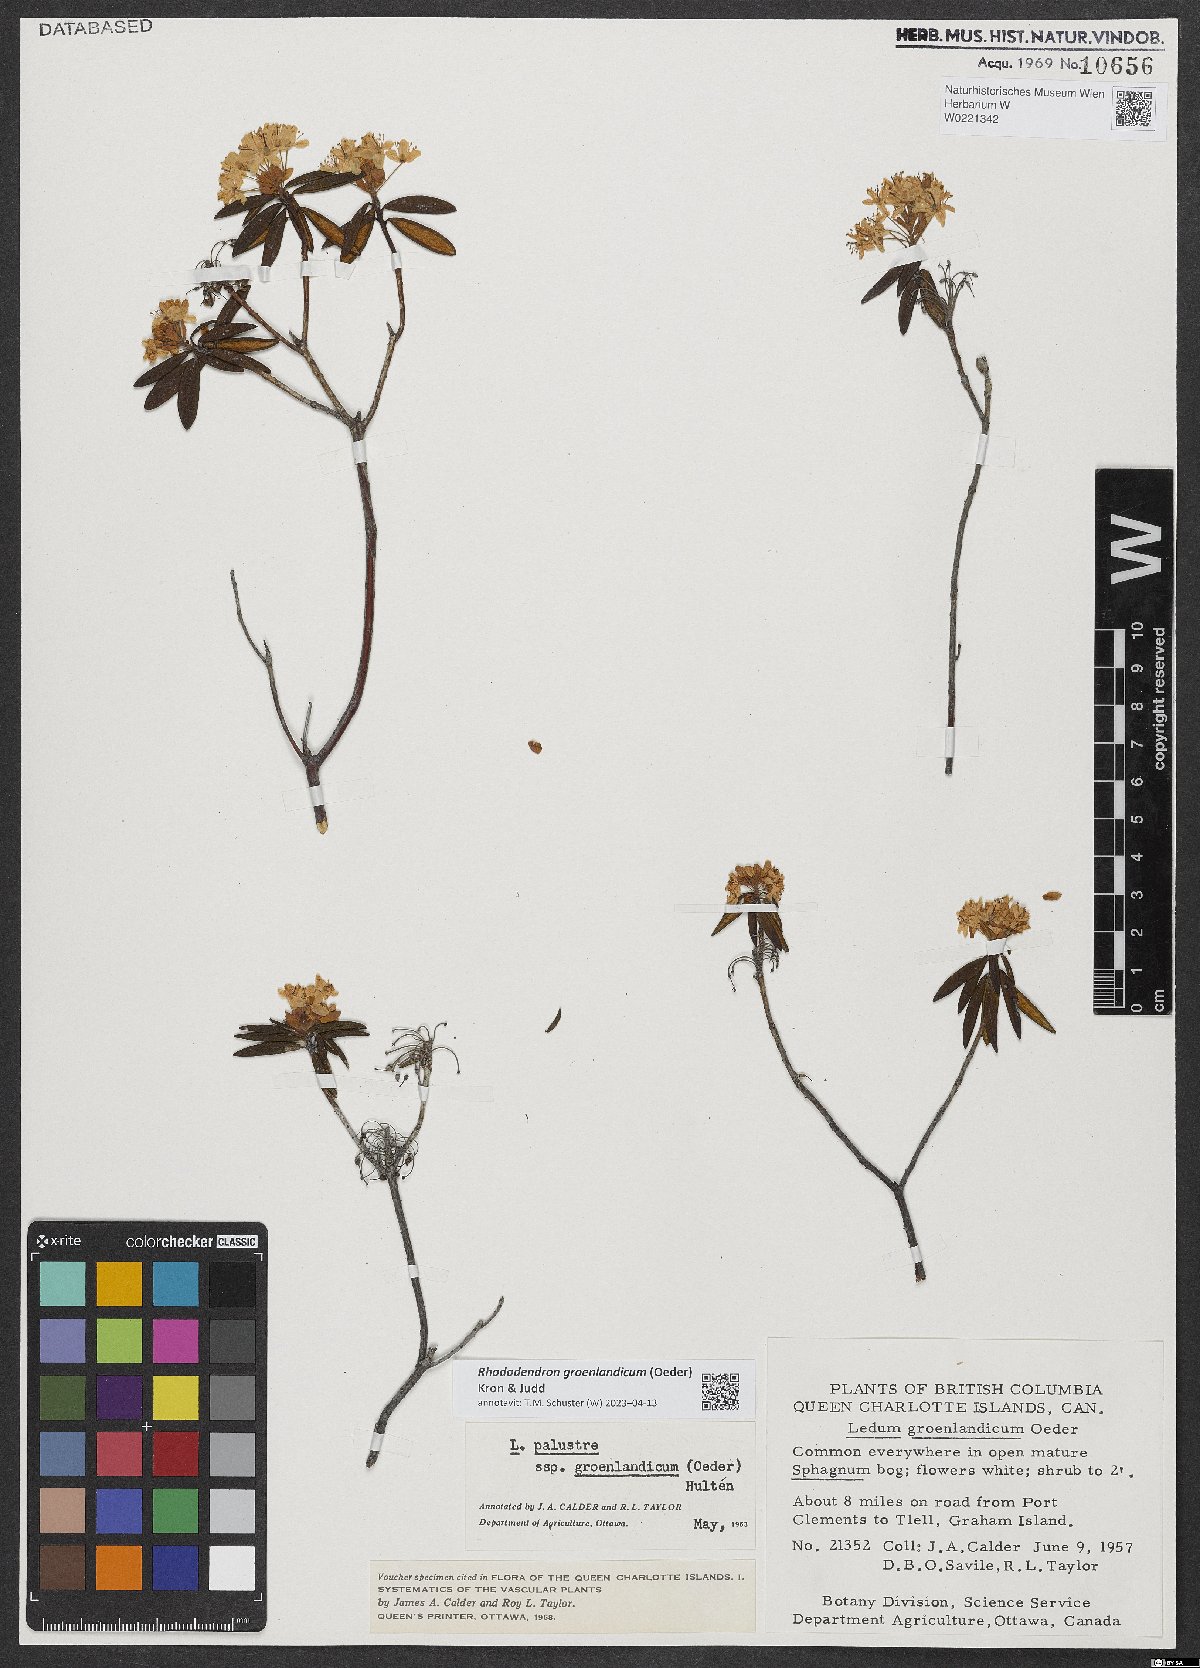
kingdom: Plantae
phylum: Tracheophyta
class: Magnoliopsida
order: Ericales
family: Ericaceae
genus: Rhododendron
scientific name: Rhododendron groenlandicum
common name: Bog labrador tea
